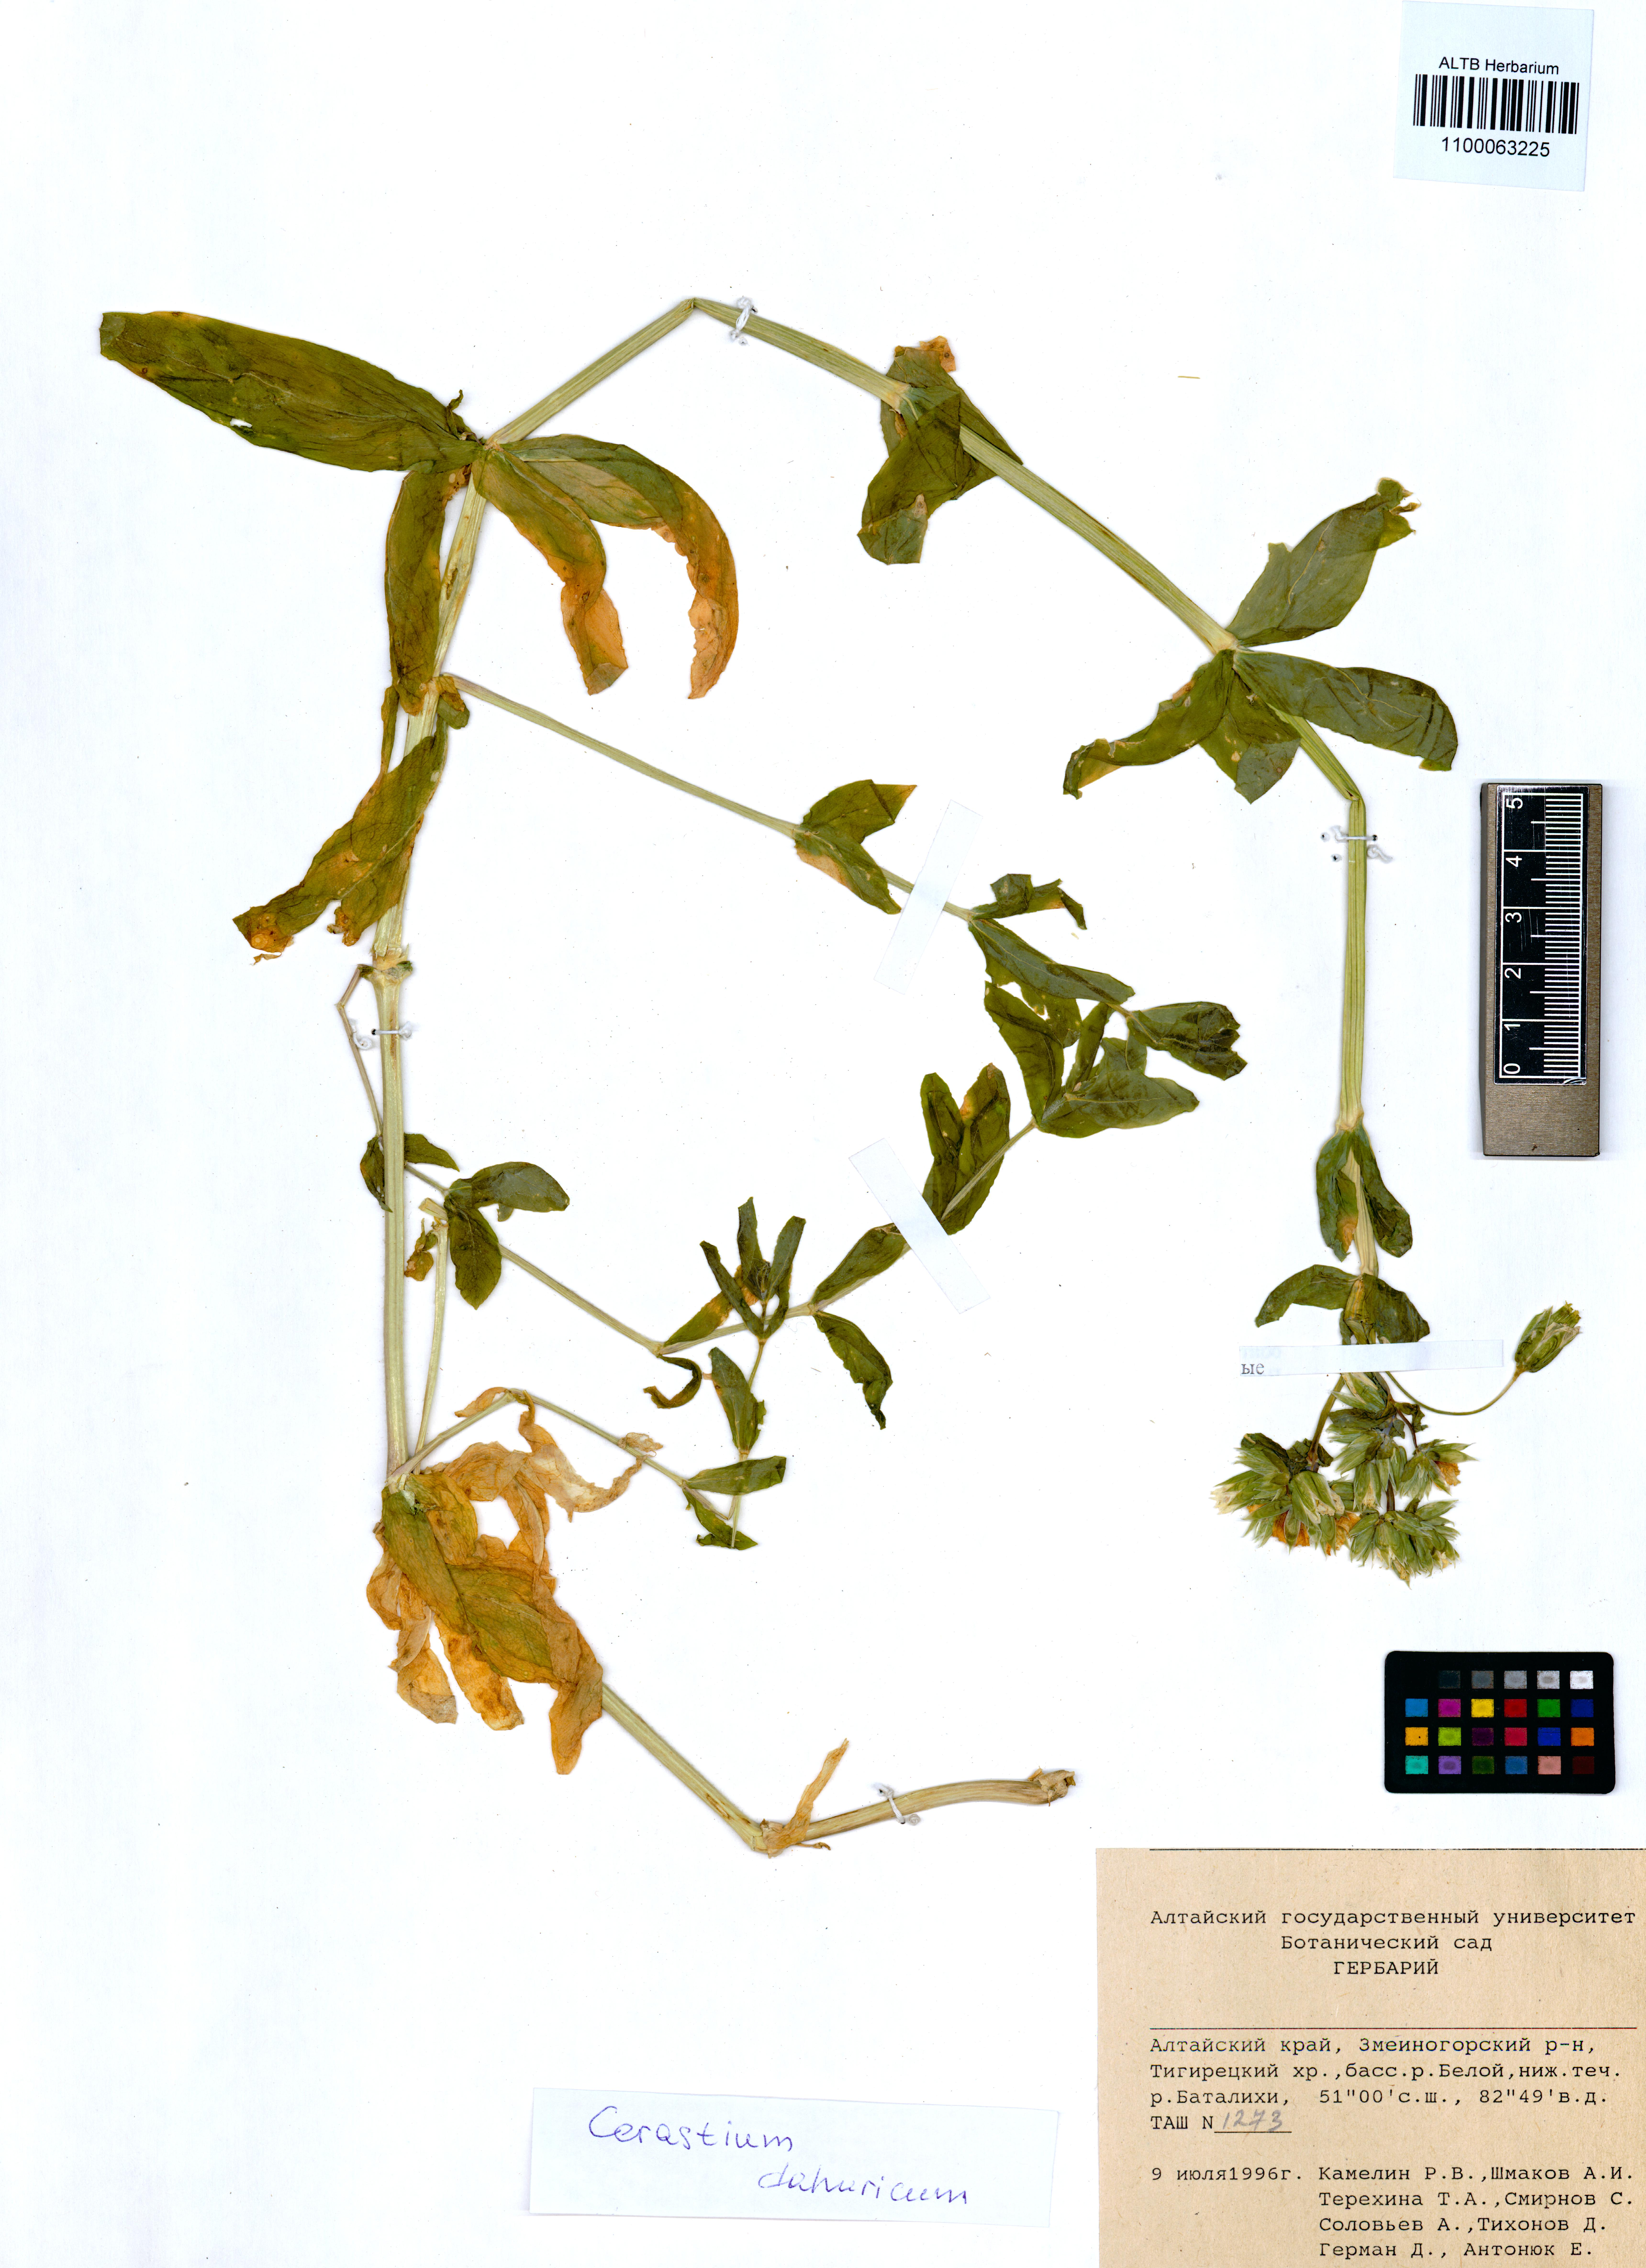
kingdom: Plantae
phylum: Tracheophyta
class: Magnoliopsida
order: Caryophyllales
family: Caryophyllaceae
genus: Dichodon
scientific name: Dichodon davuricum
